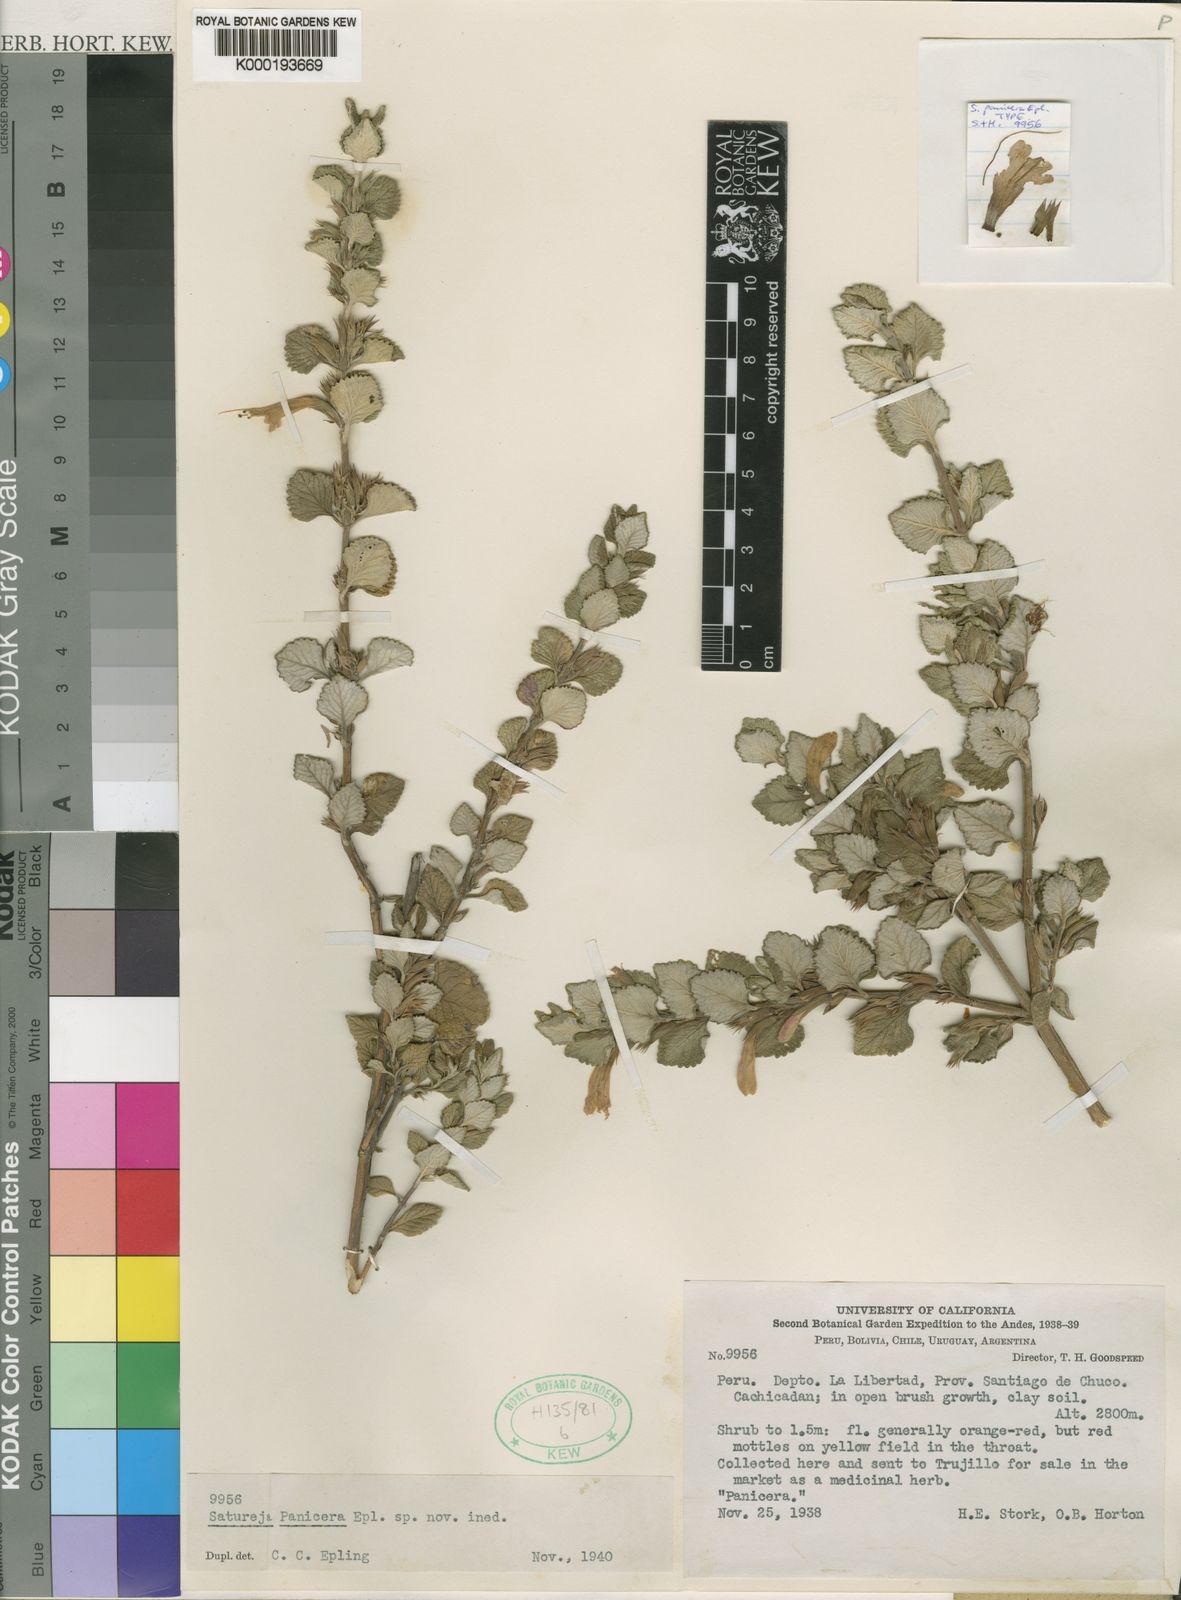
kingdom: Plantae
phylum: Tracheophyta
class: Magnoliopsida
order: Lamiales
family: Lamiaceae
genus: Clinopodium
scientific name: Clinopodium pulchellum
